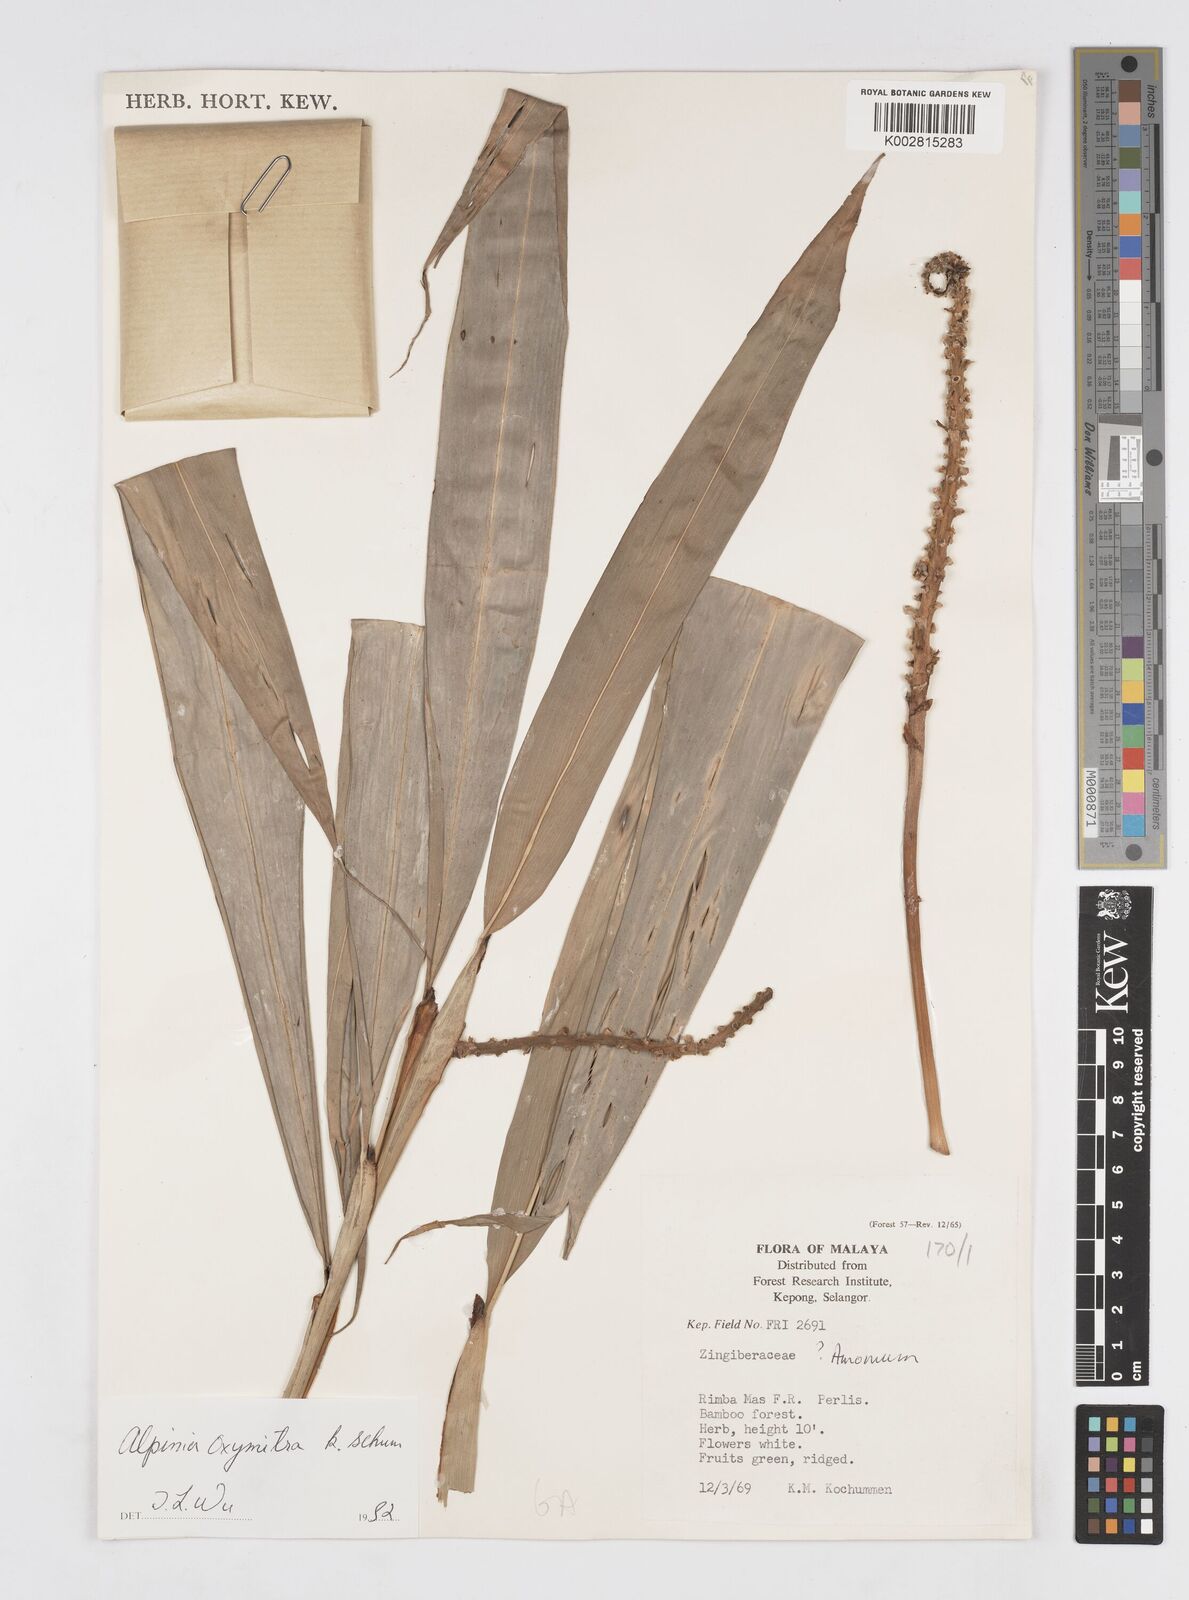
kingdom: Plantae
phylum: Tracheophyta
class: Liliopsida
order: Zingiberales
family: Zingiberaceae
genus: Alpinia
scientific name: Alpinia oxymitra
